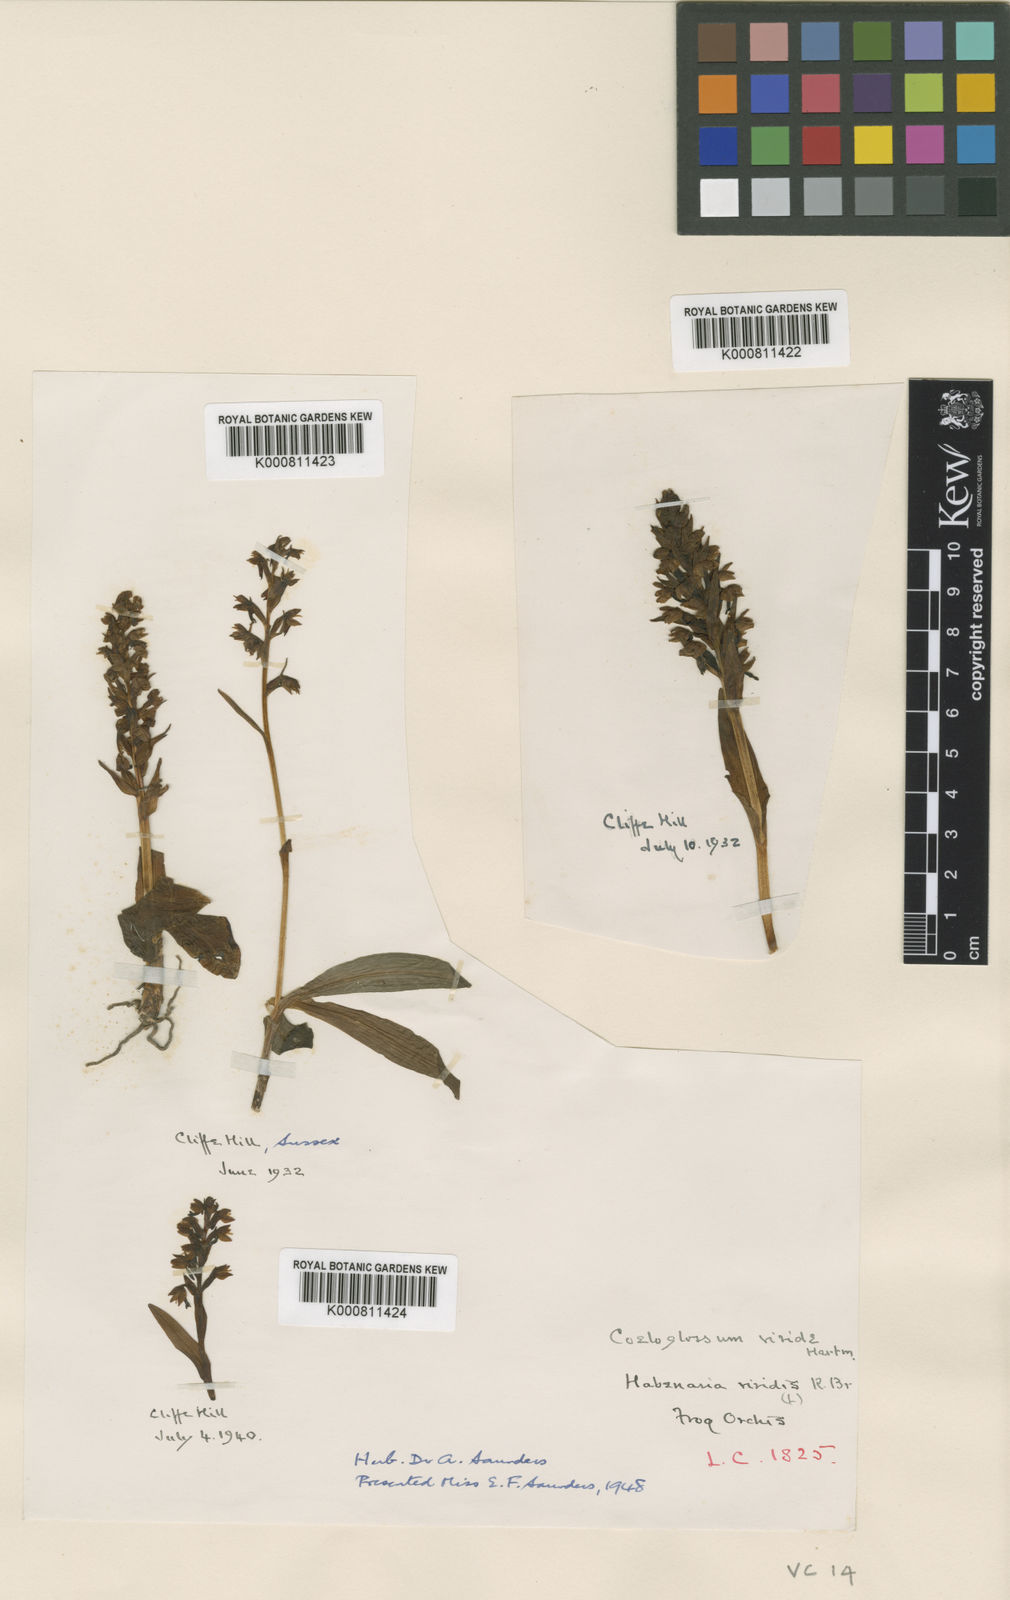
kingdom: Plantae
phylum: Tracheophyta
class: Liliopsida
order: Asparagales
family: Orchidaceae
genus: Dactylorhiza
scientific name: Dactylorhiza viridis
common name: Longbract frog orchid
